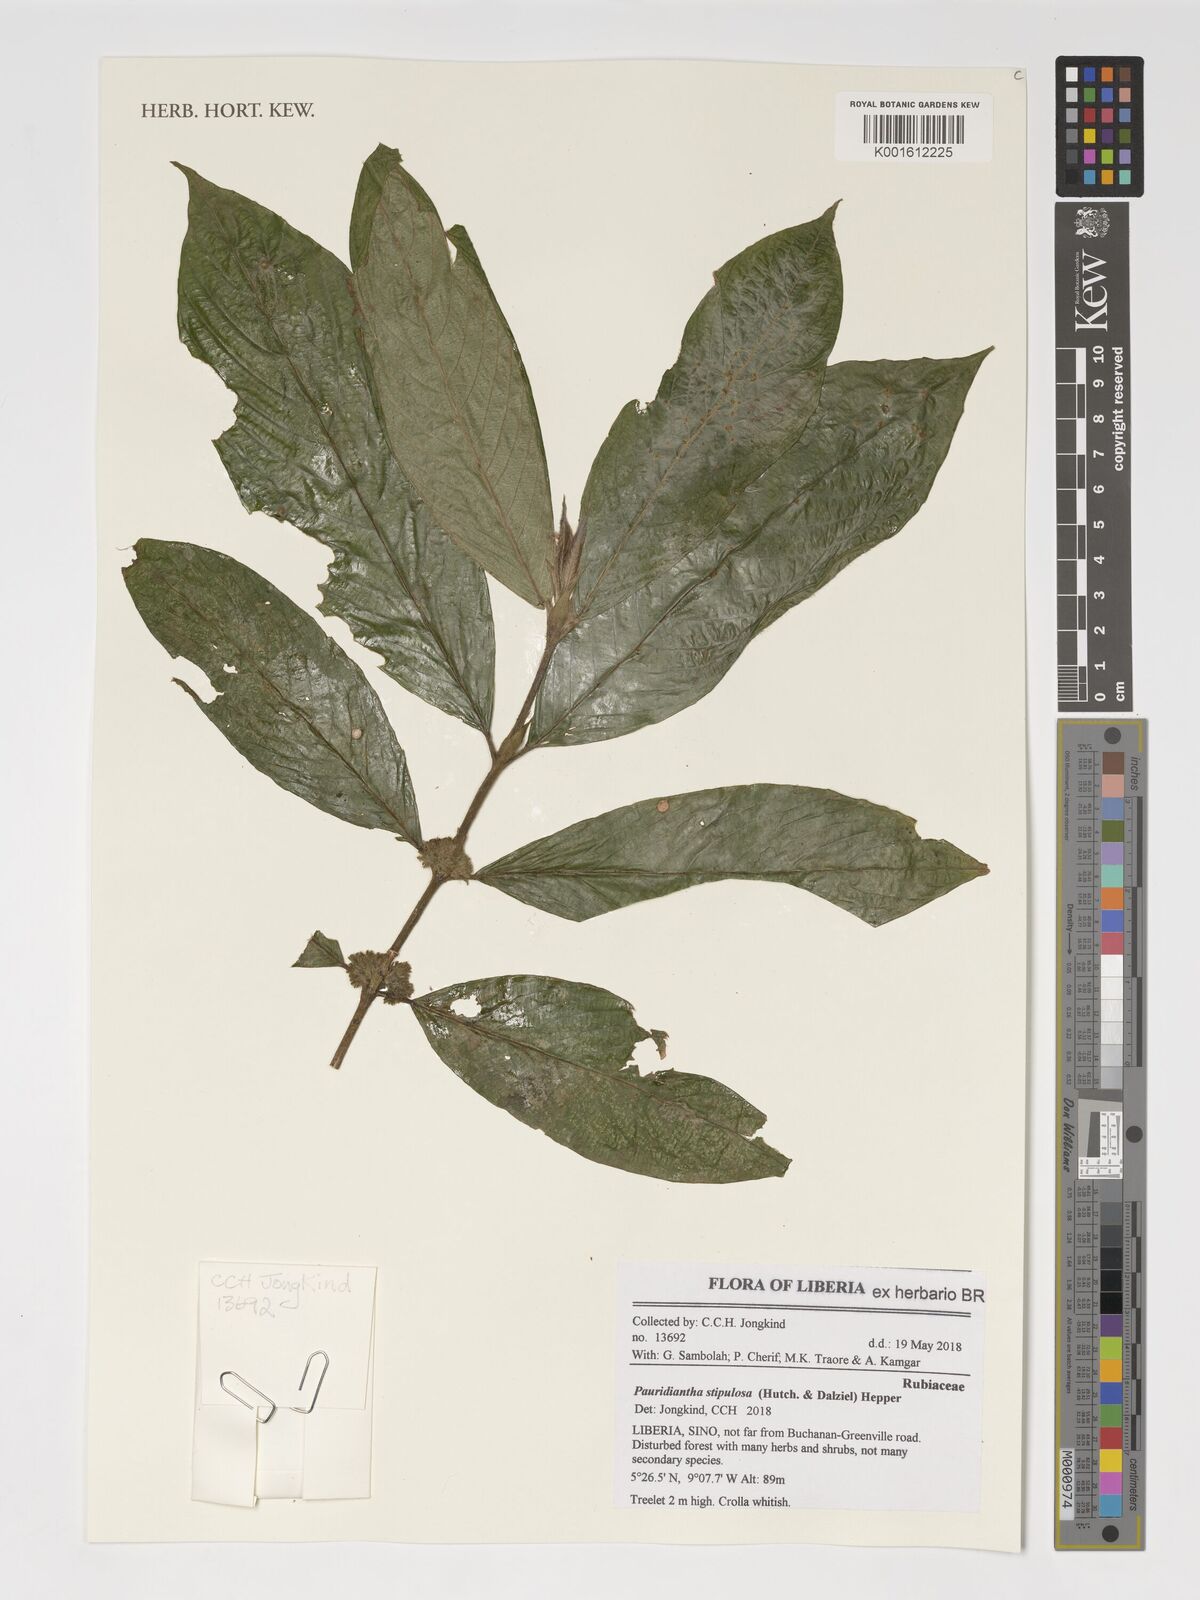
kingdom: Plantae
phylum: Tracheophyta
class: Magnoliopsida
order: Gentianales
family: Rubiaceae
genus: Pauridiantha
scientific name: Pauridiantha stipulosa
